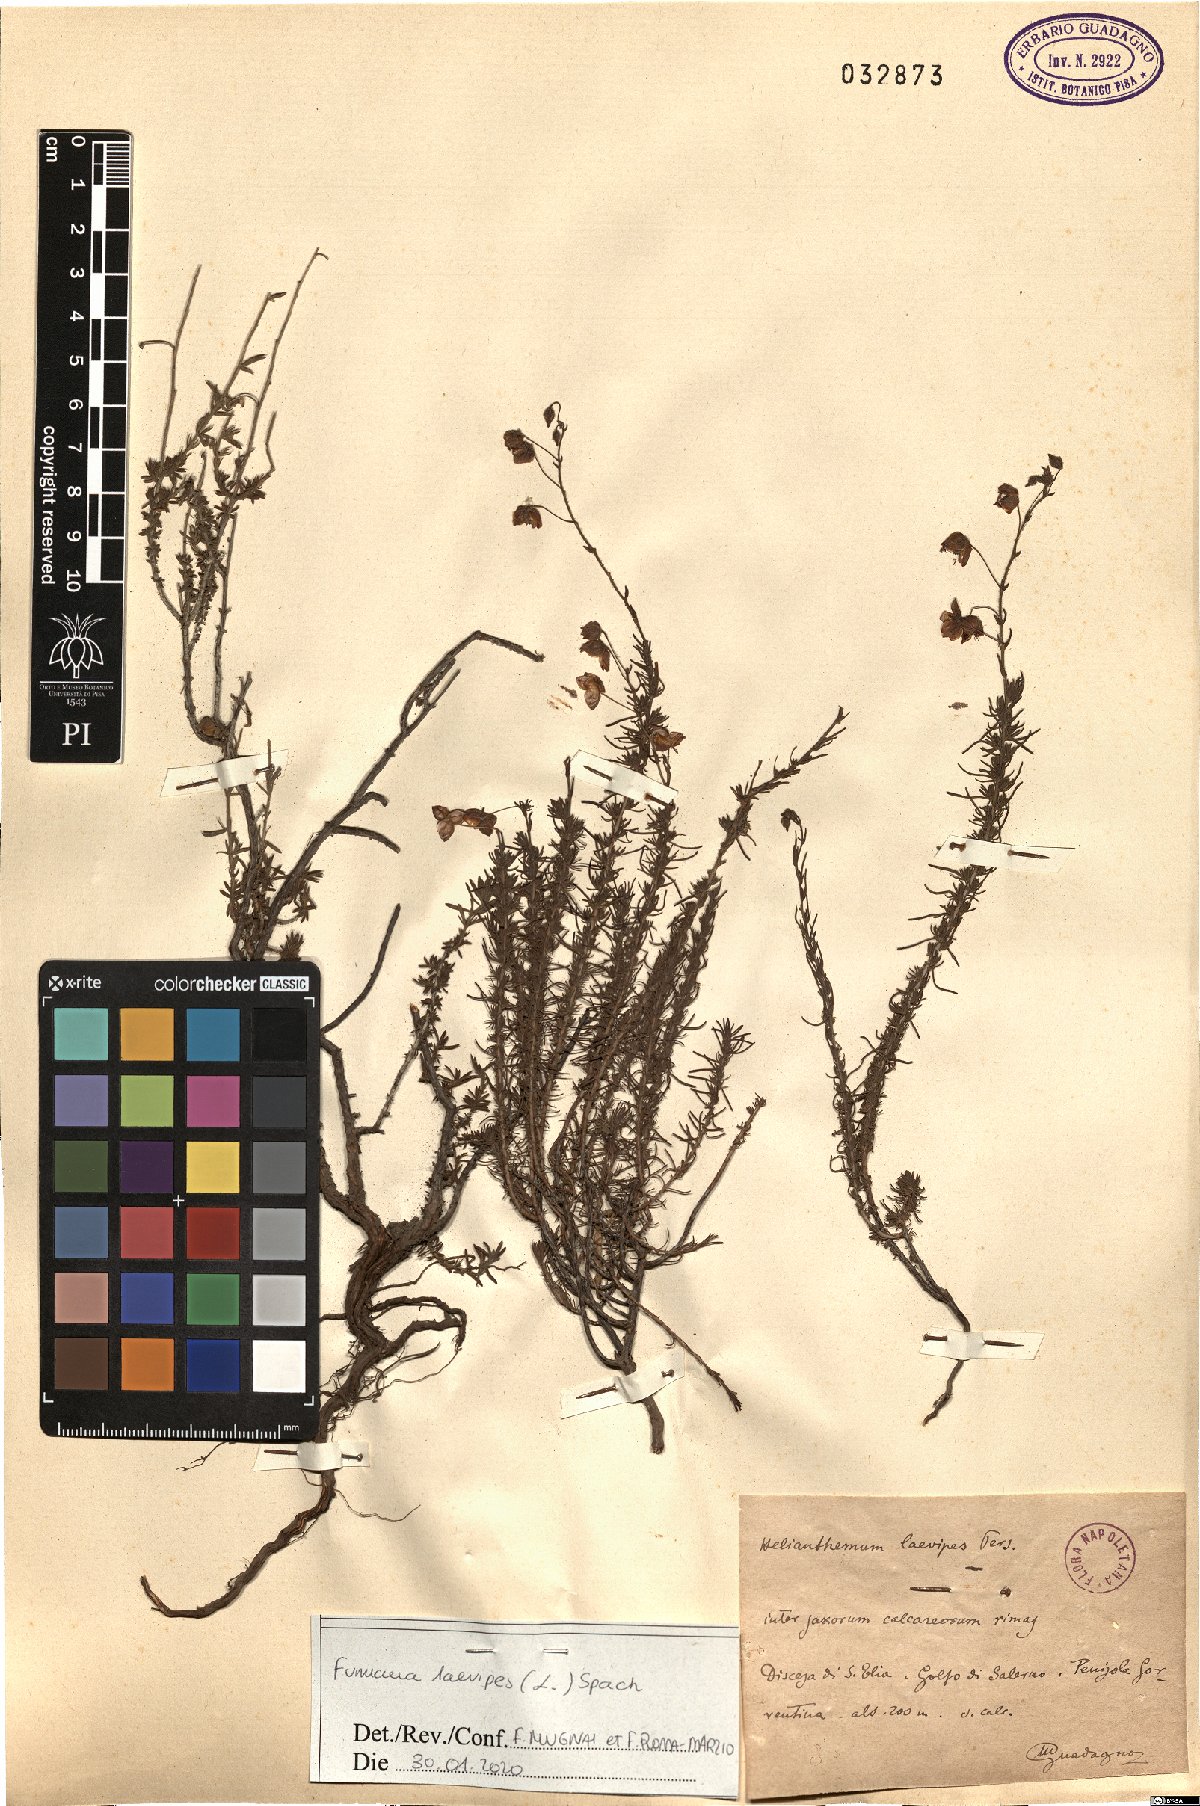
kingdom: Plantae
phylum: Tracheophyta
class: Magnoliopsida
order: Malvales
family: Cistaceae
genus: Fumana
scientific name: Fumana laevipes
